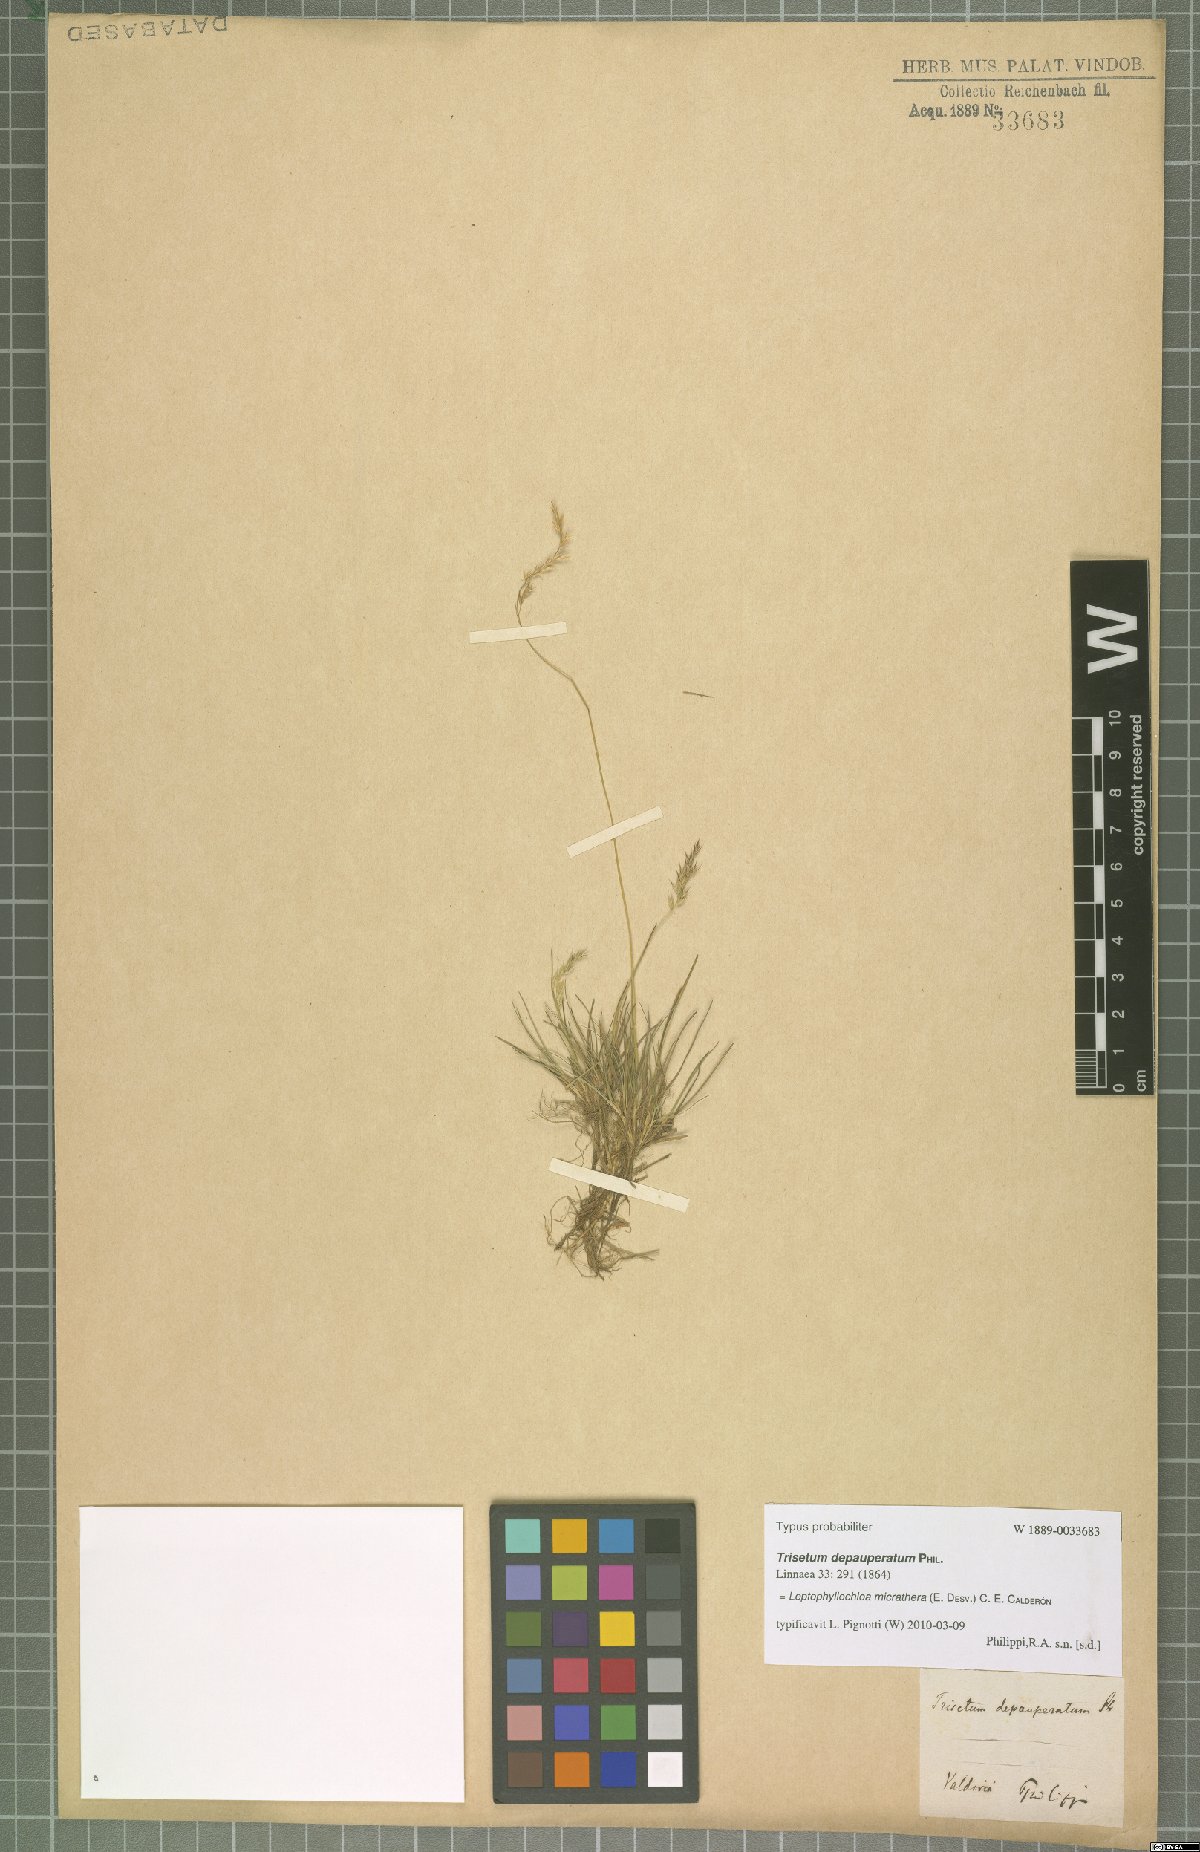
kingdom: Plantae
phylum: Tracheophyta
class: Liliopsida
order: Poales
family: Poaceae
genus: Cinnagrostis
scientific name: Cinnagrostis micrathera
